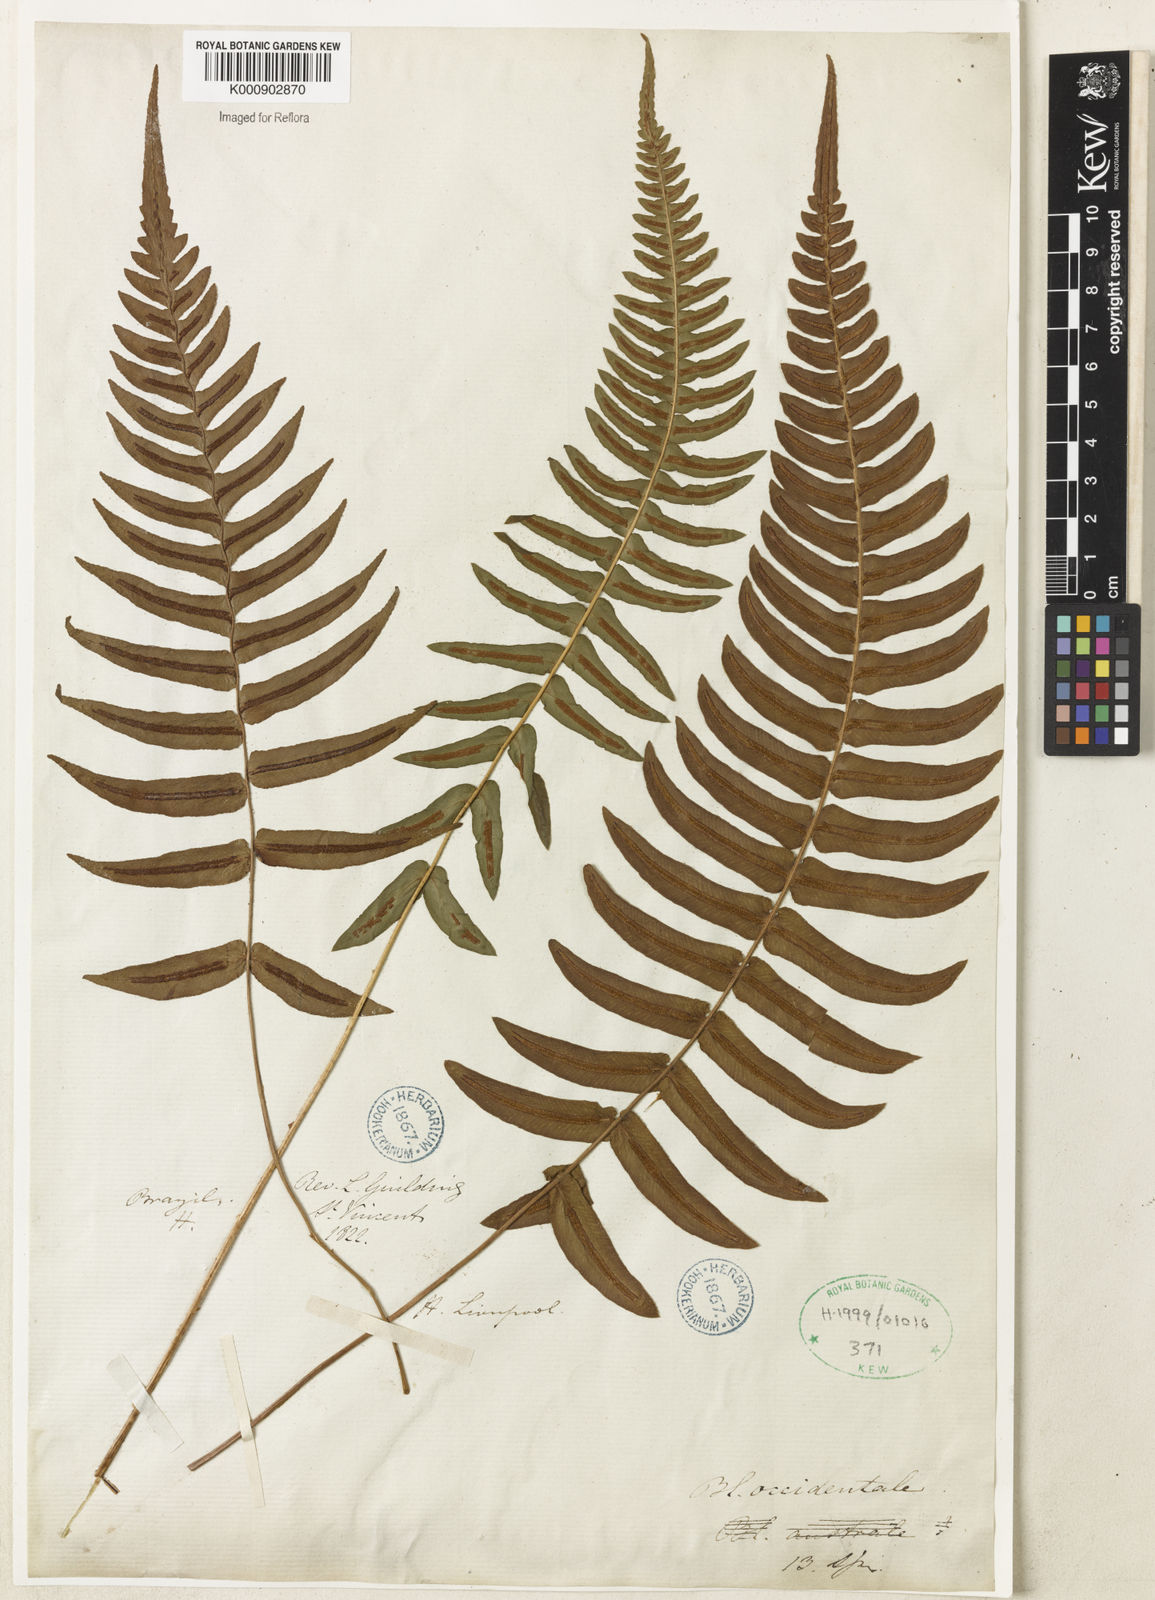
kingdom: Plantae
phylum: Tracheophyta
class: Polypodiopsida
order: Polypodiales
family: Blechnaceae
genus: Blechnum
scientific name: Blechnum occidentale
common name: Hammock fern
